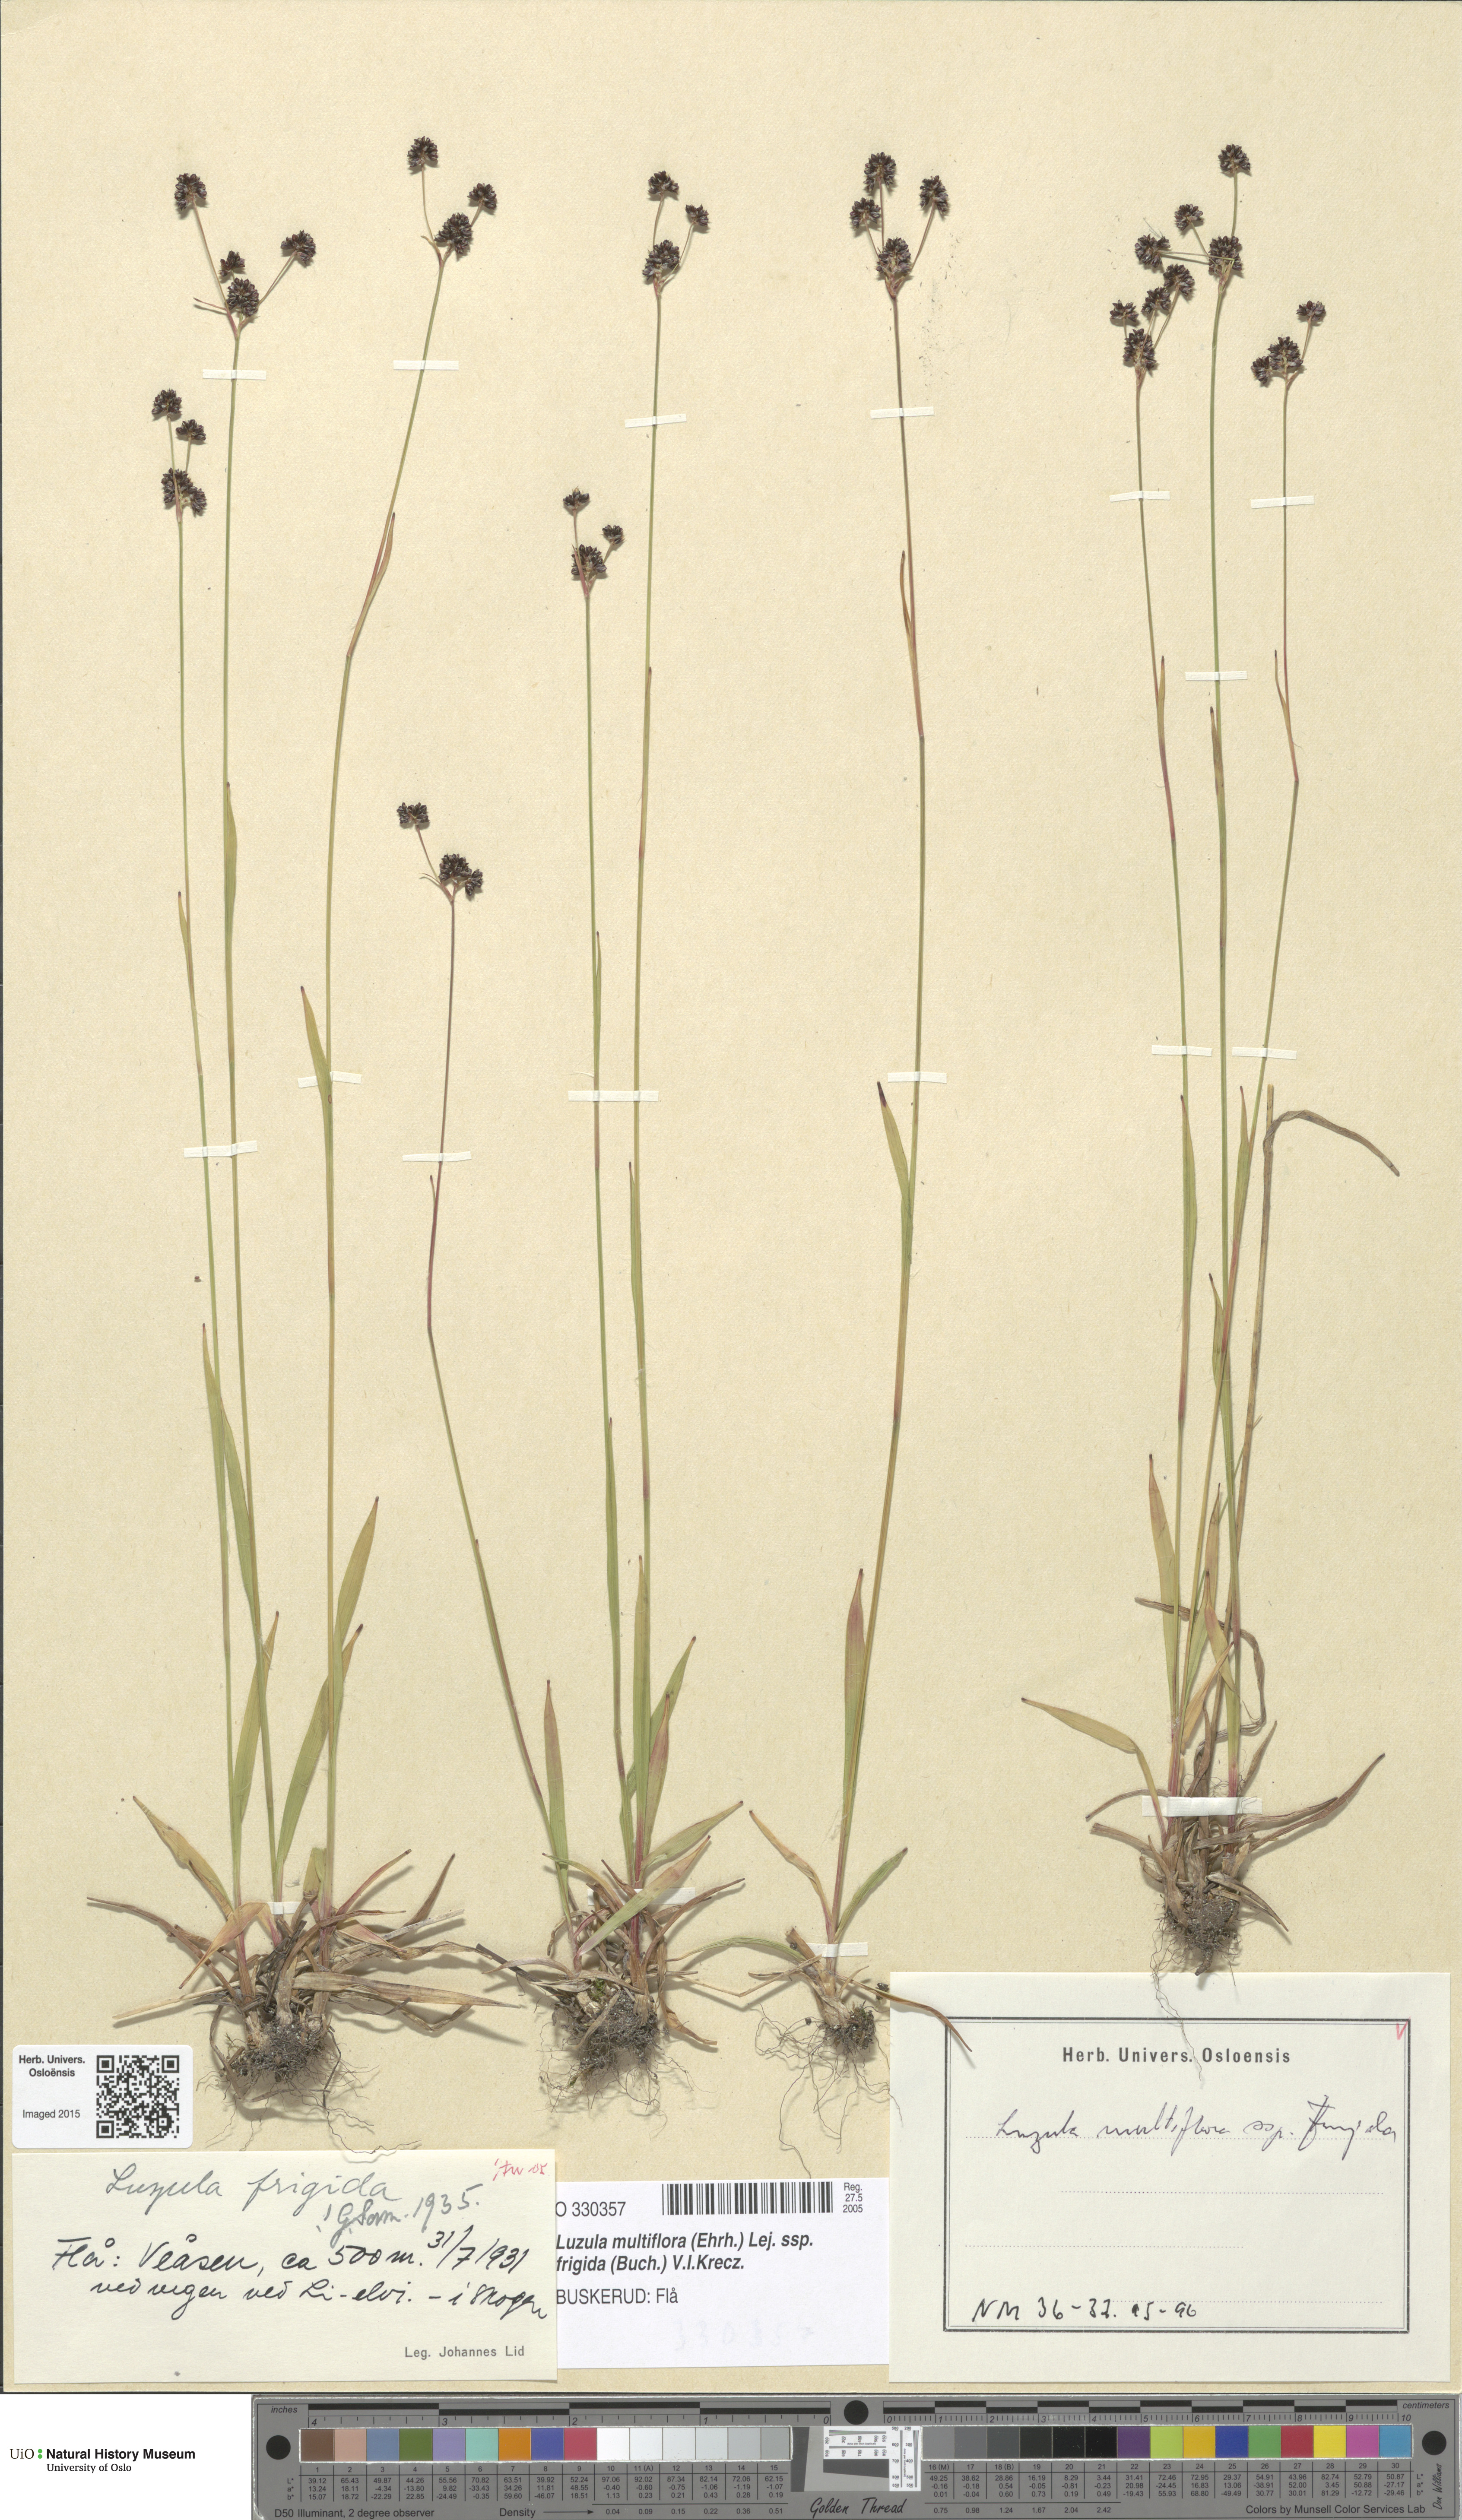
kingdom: Plantae
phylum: Tracheophyta
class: Liliopsida
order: Poales
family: Juncaceae
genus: Luzula
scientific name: Luzula multiflora
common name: Heath wood-rush
